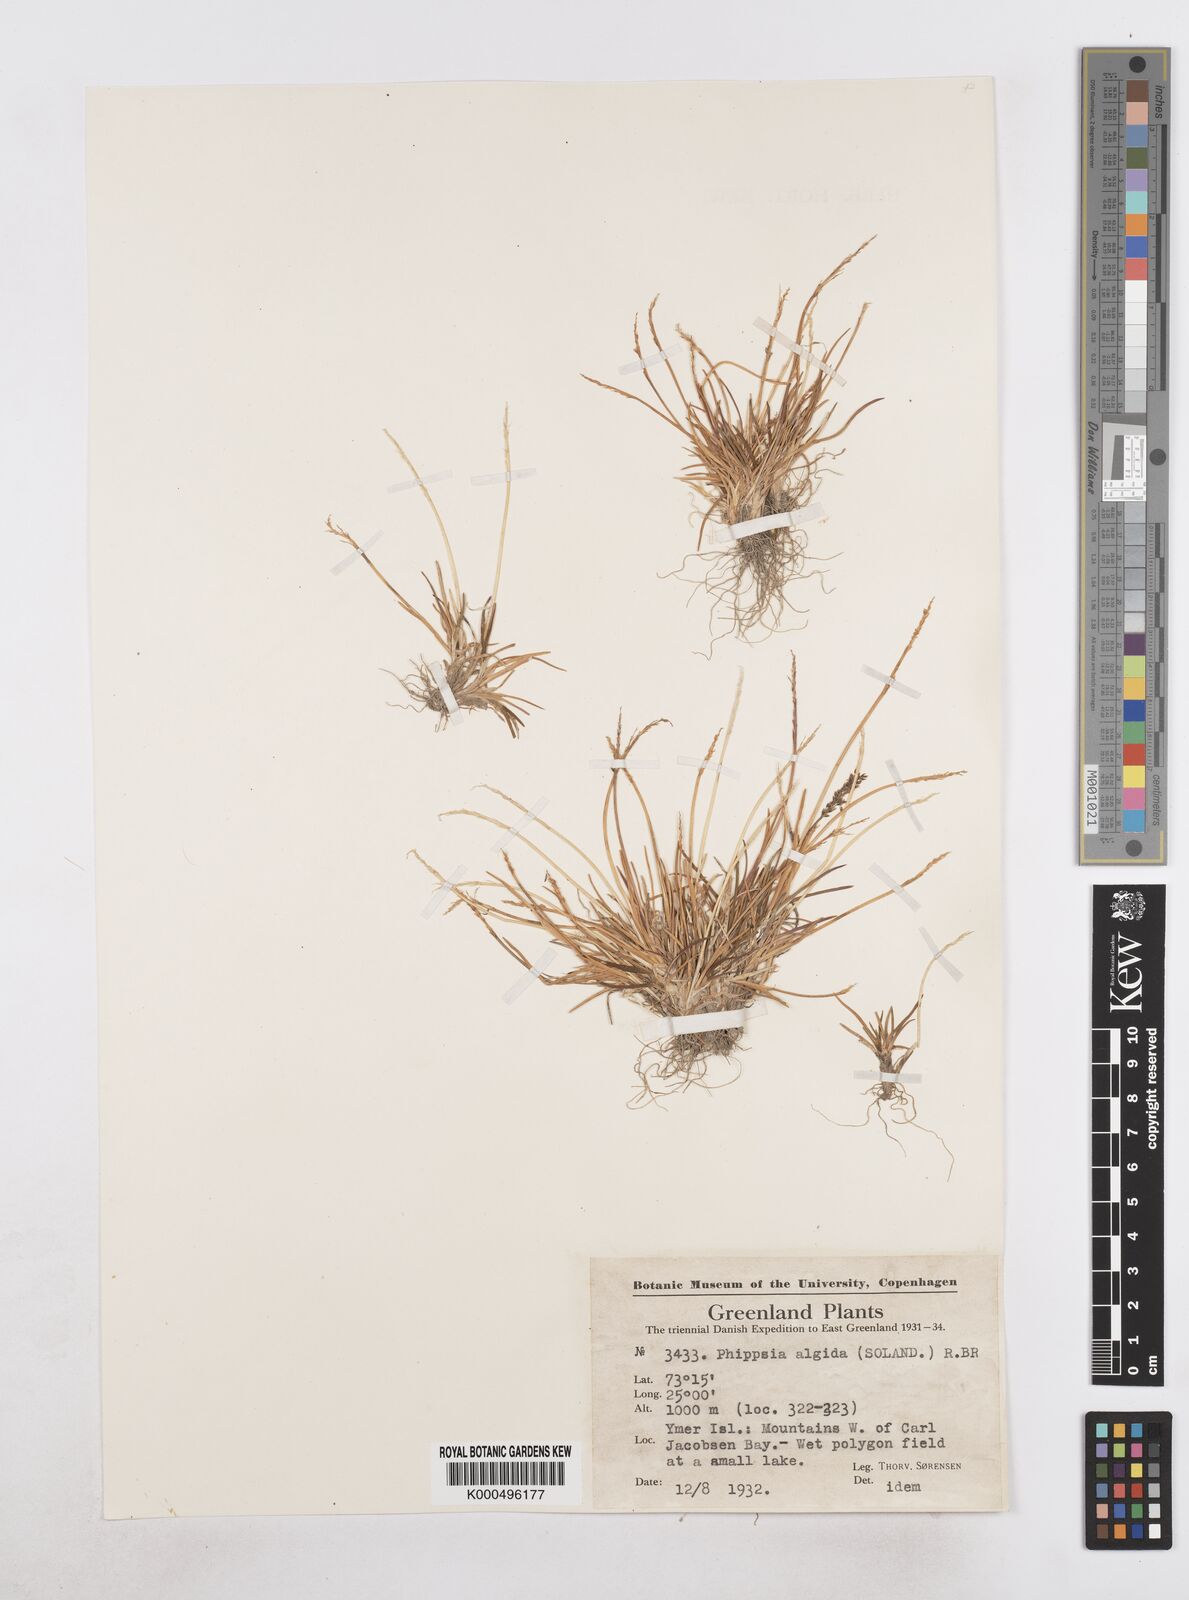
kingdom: Plantae
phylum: Tracheophyta
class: Liliopsida
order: Poales
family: Poaceae
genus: Phippsia
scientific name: Phippsia algida
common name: Ice grass
